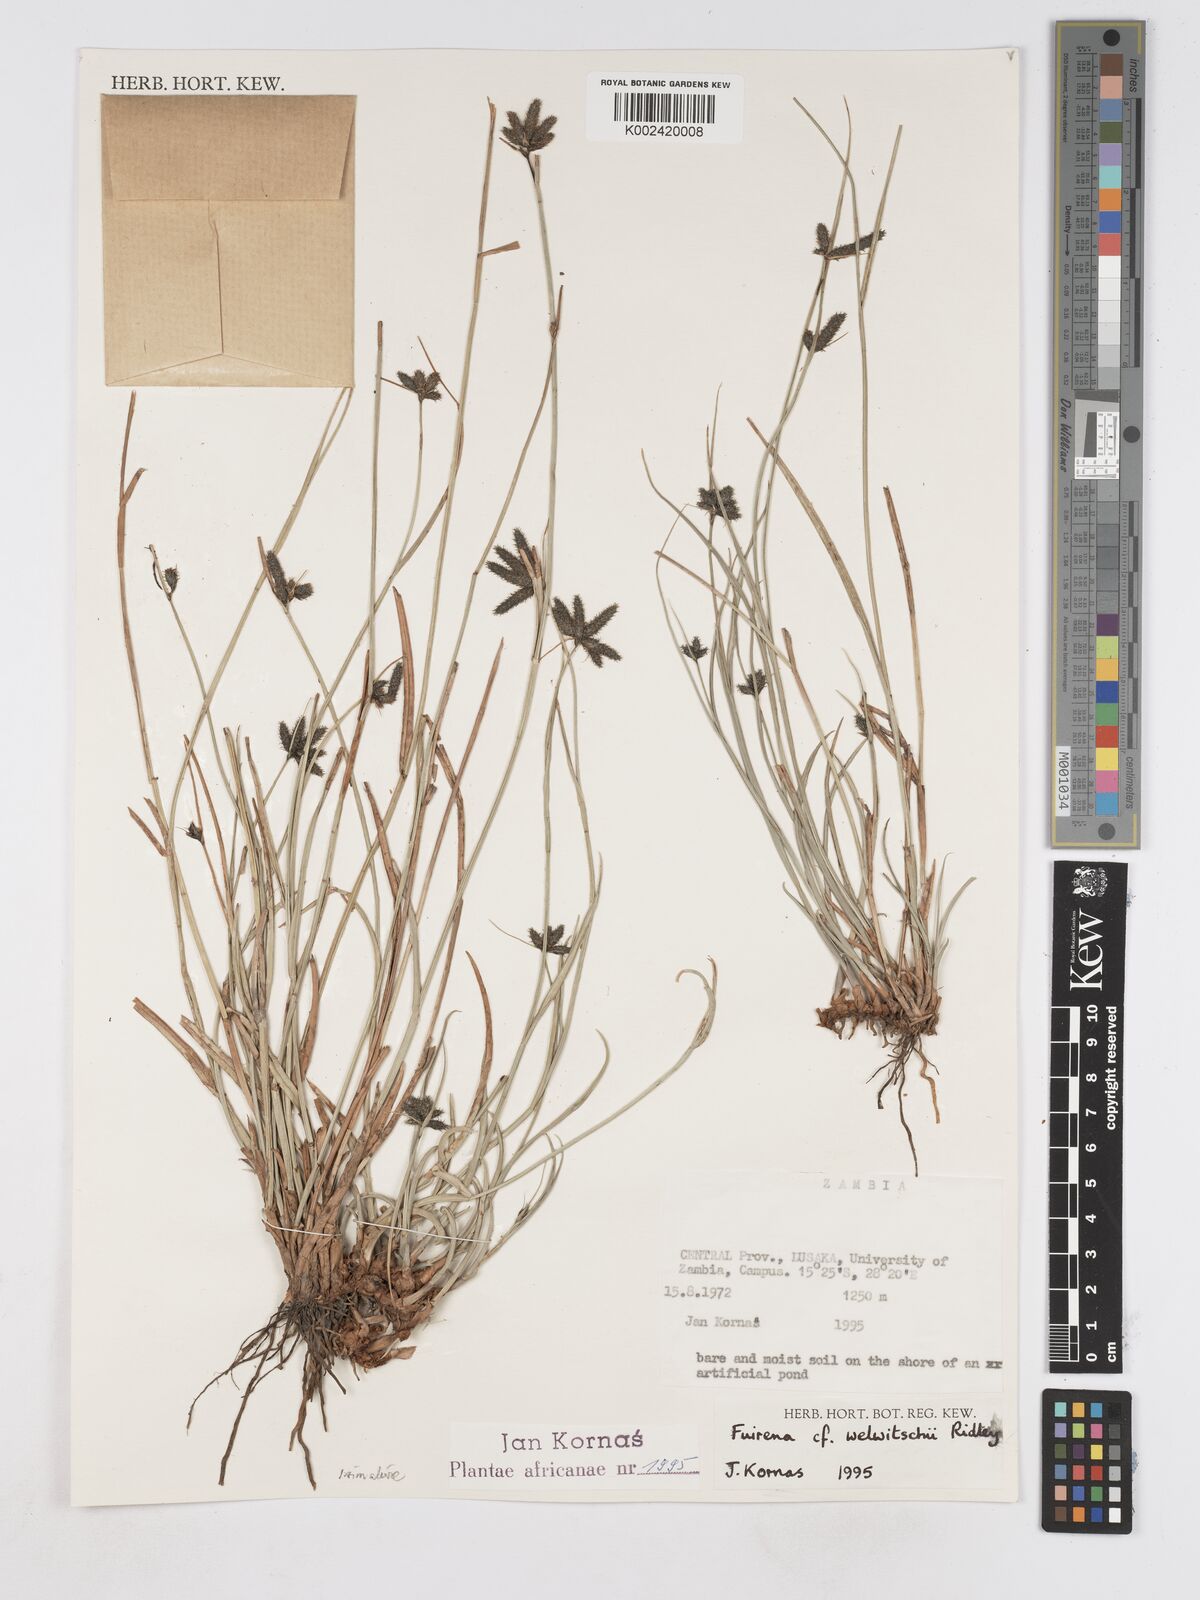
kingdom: Plantae
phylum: Tracheophyta
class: Liliopsida
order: Poales
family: Cyperaceae
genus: Fuirena
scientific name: Fuirena coerulescens
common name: Blue umbrella-sedge
